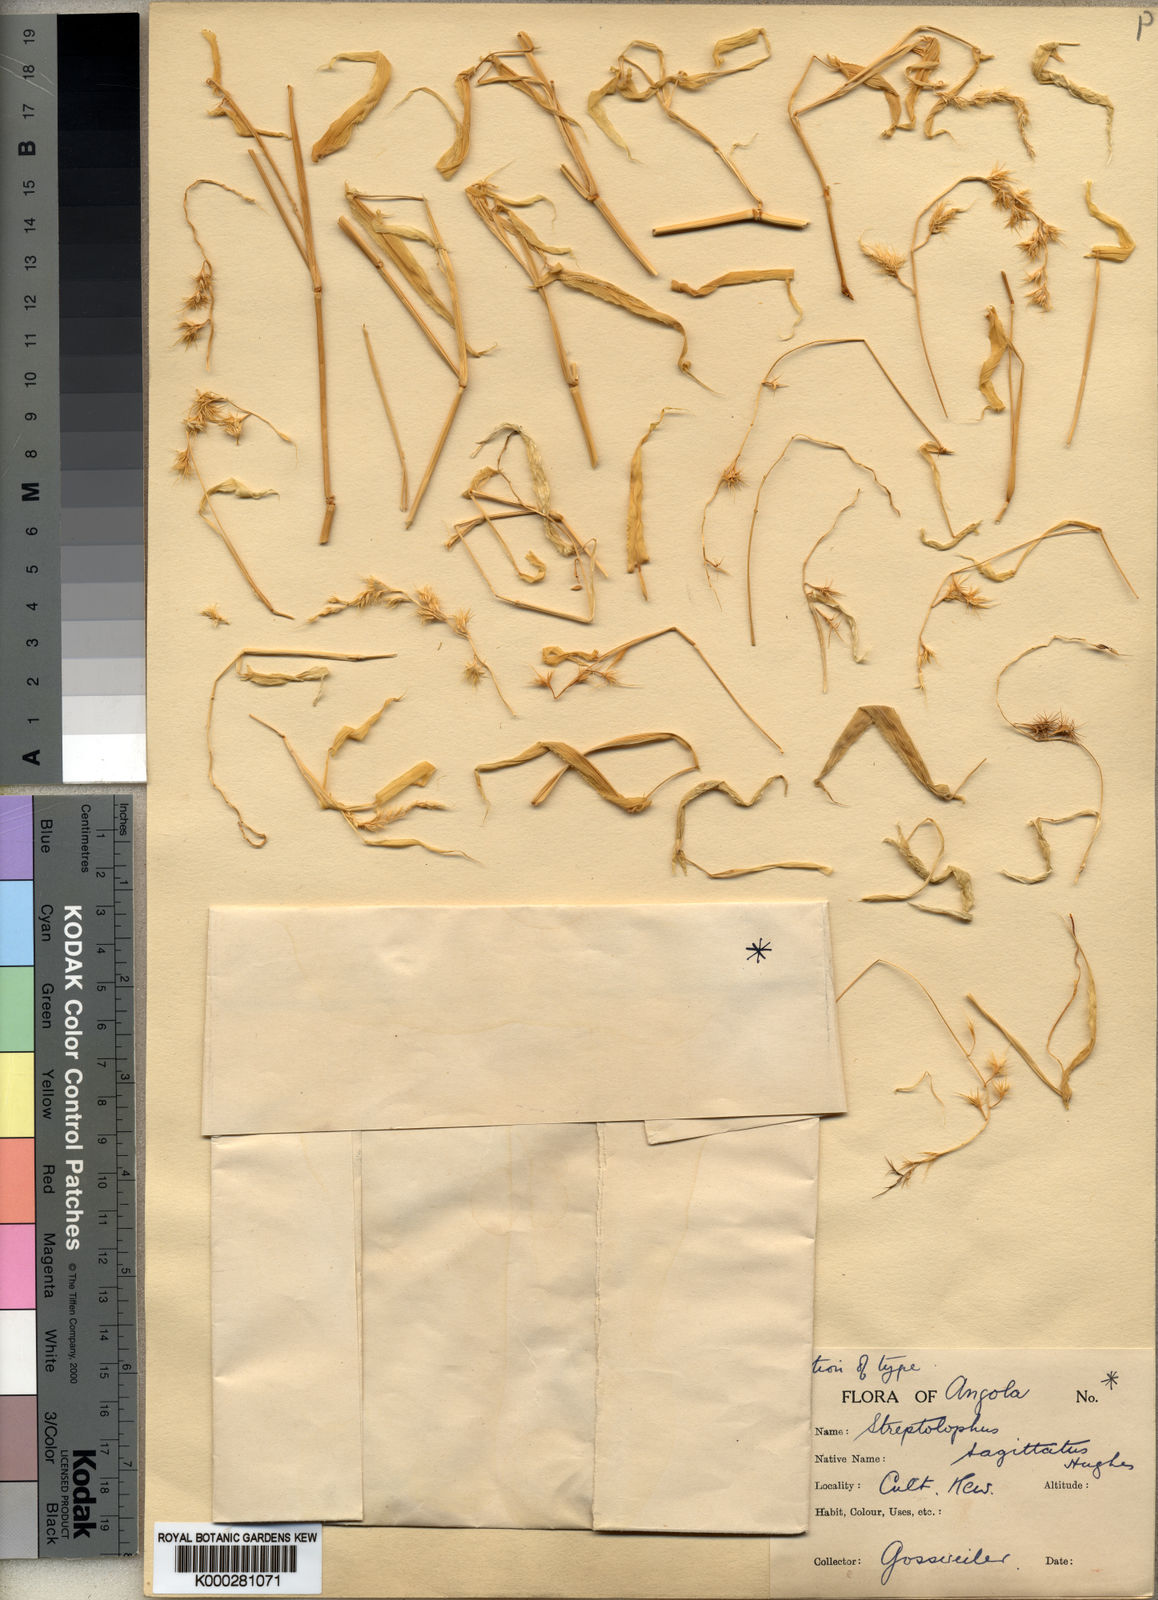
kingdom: Plantae
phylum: Tracheophyta
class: Liliopsida
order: Poales
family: Poaceae
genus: Streptolophus
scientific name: Streptolophus sagittifolius
